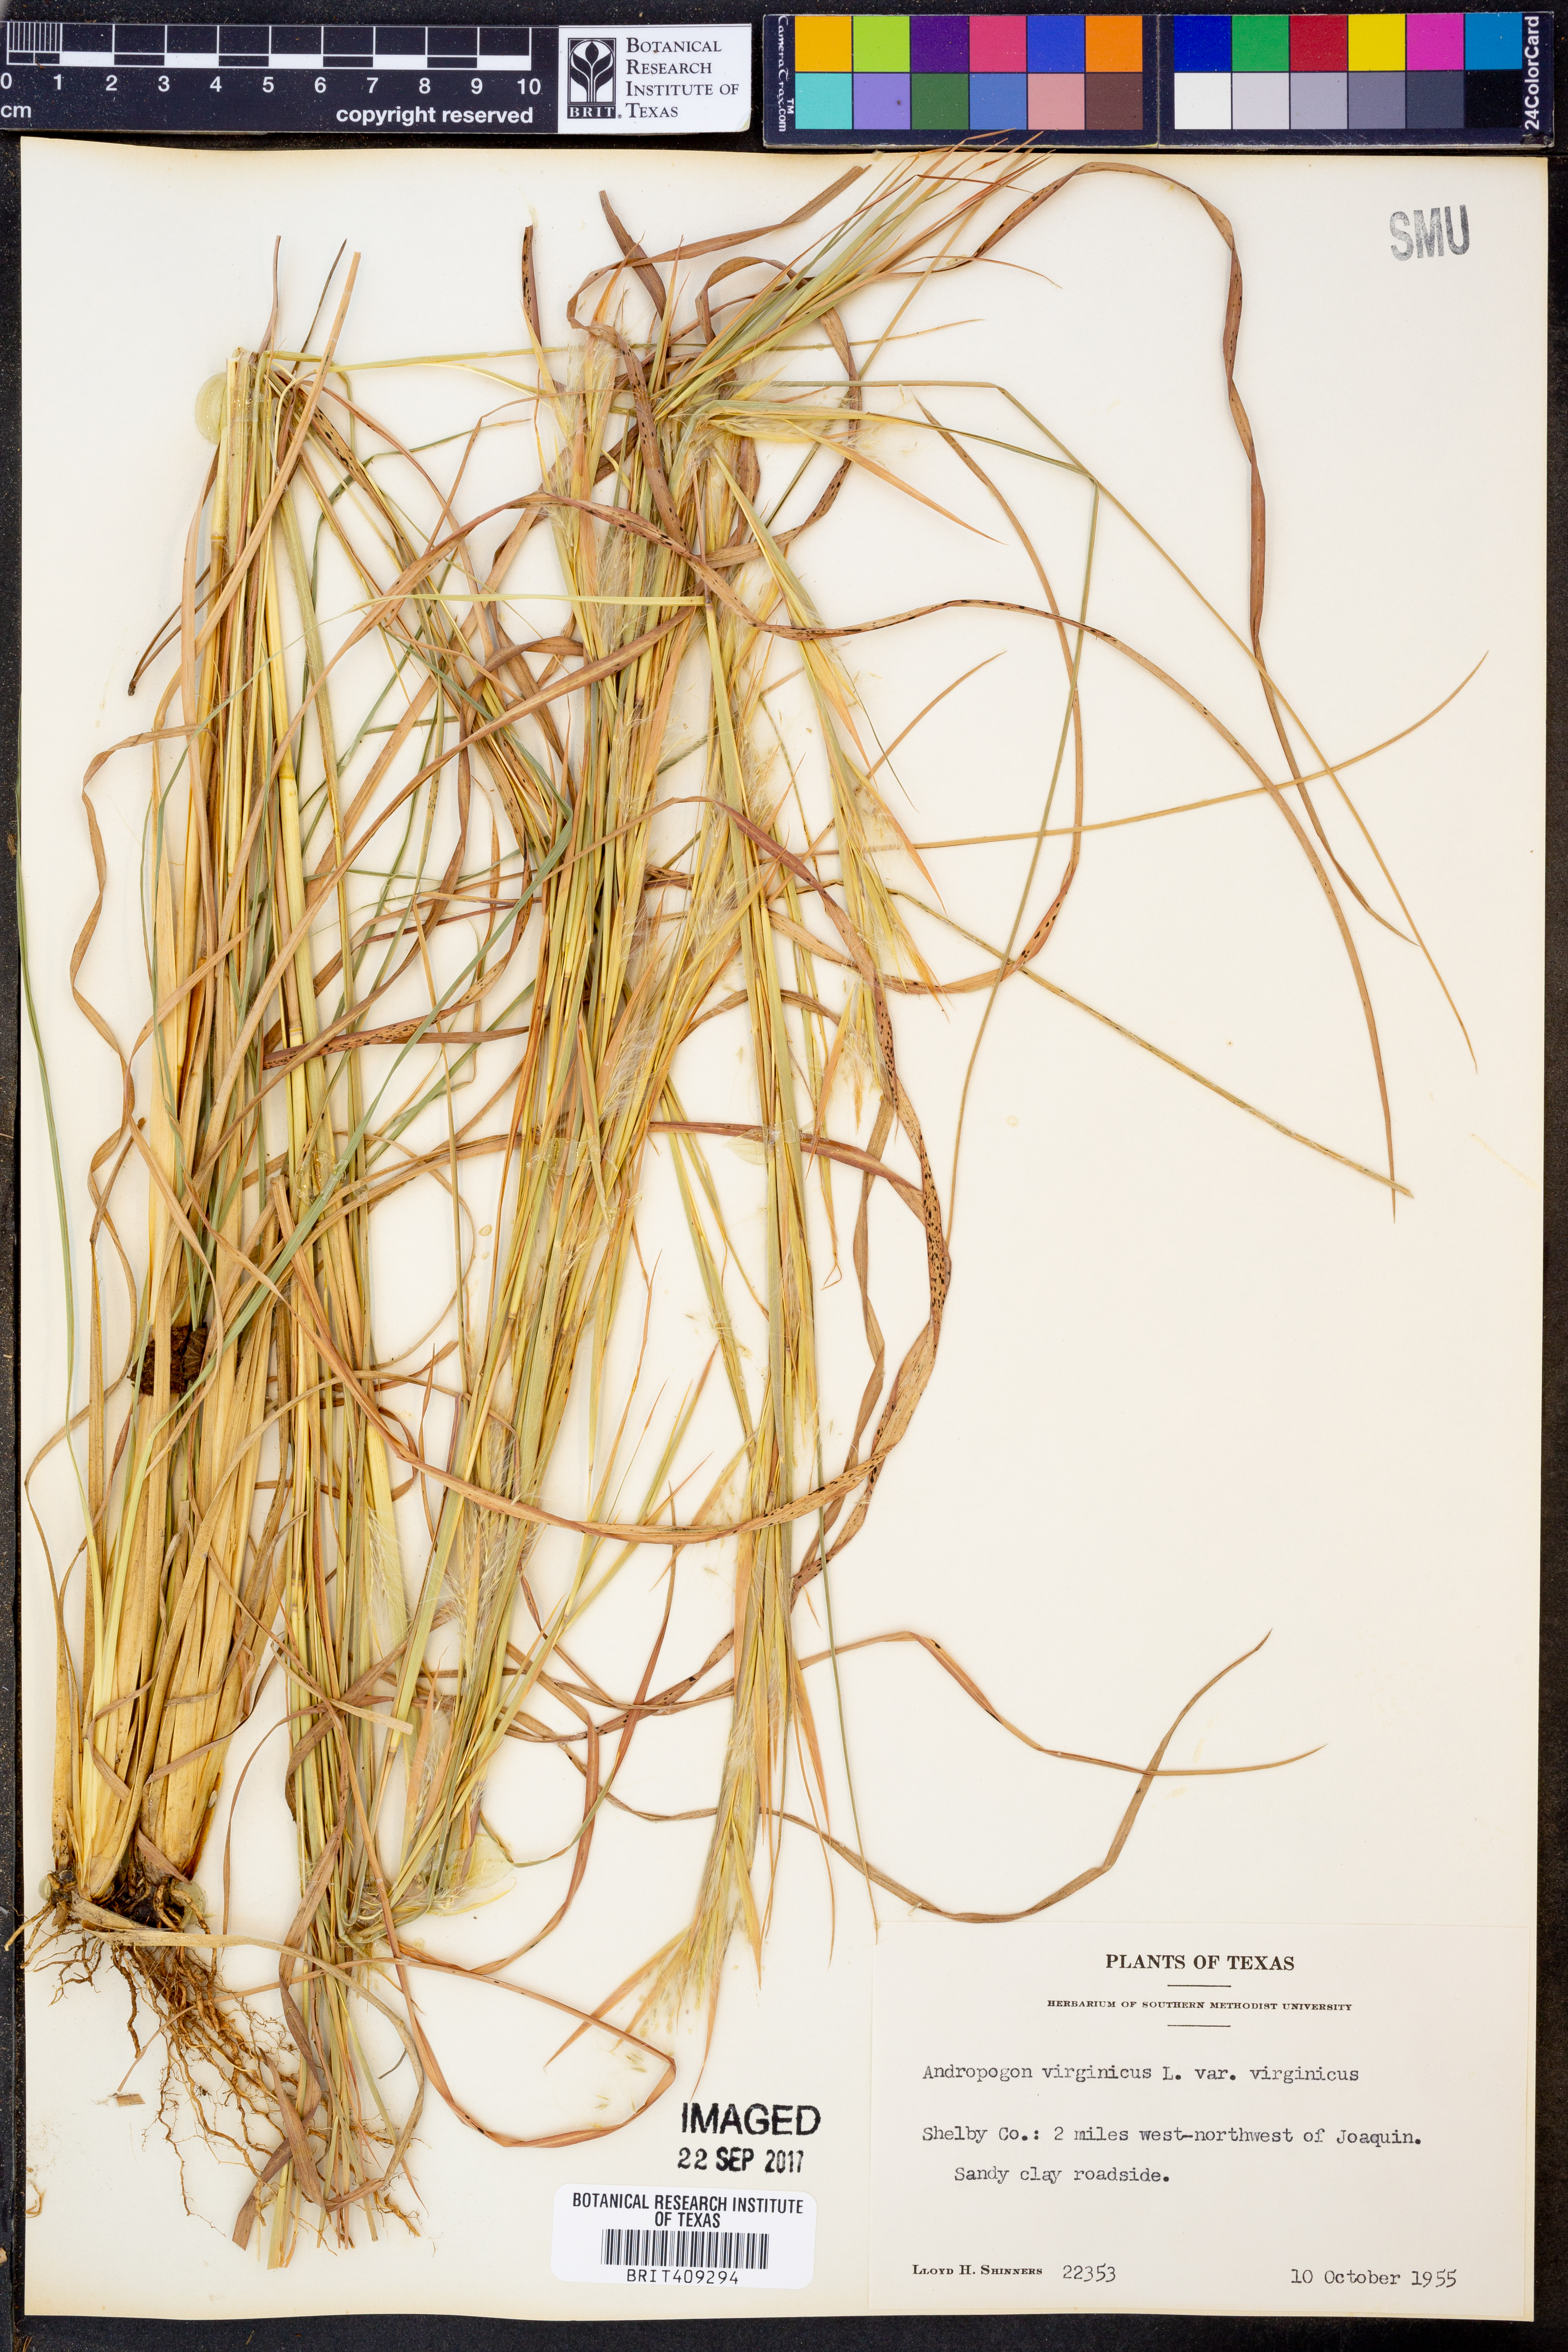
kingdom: Plantae
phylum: Tracheophyta
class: Liliopsida
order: Poales
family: Poaceae
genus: Andropogon
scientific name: Andropogon virginicus
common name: Broomsedge bluestem
